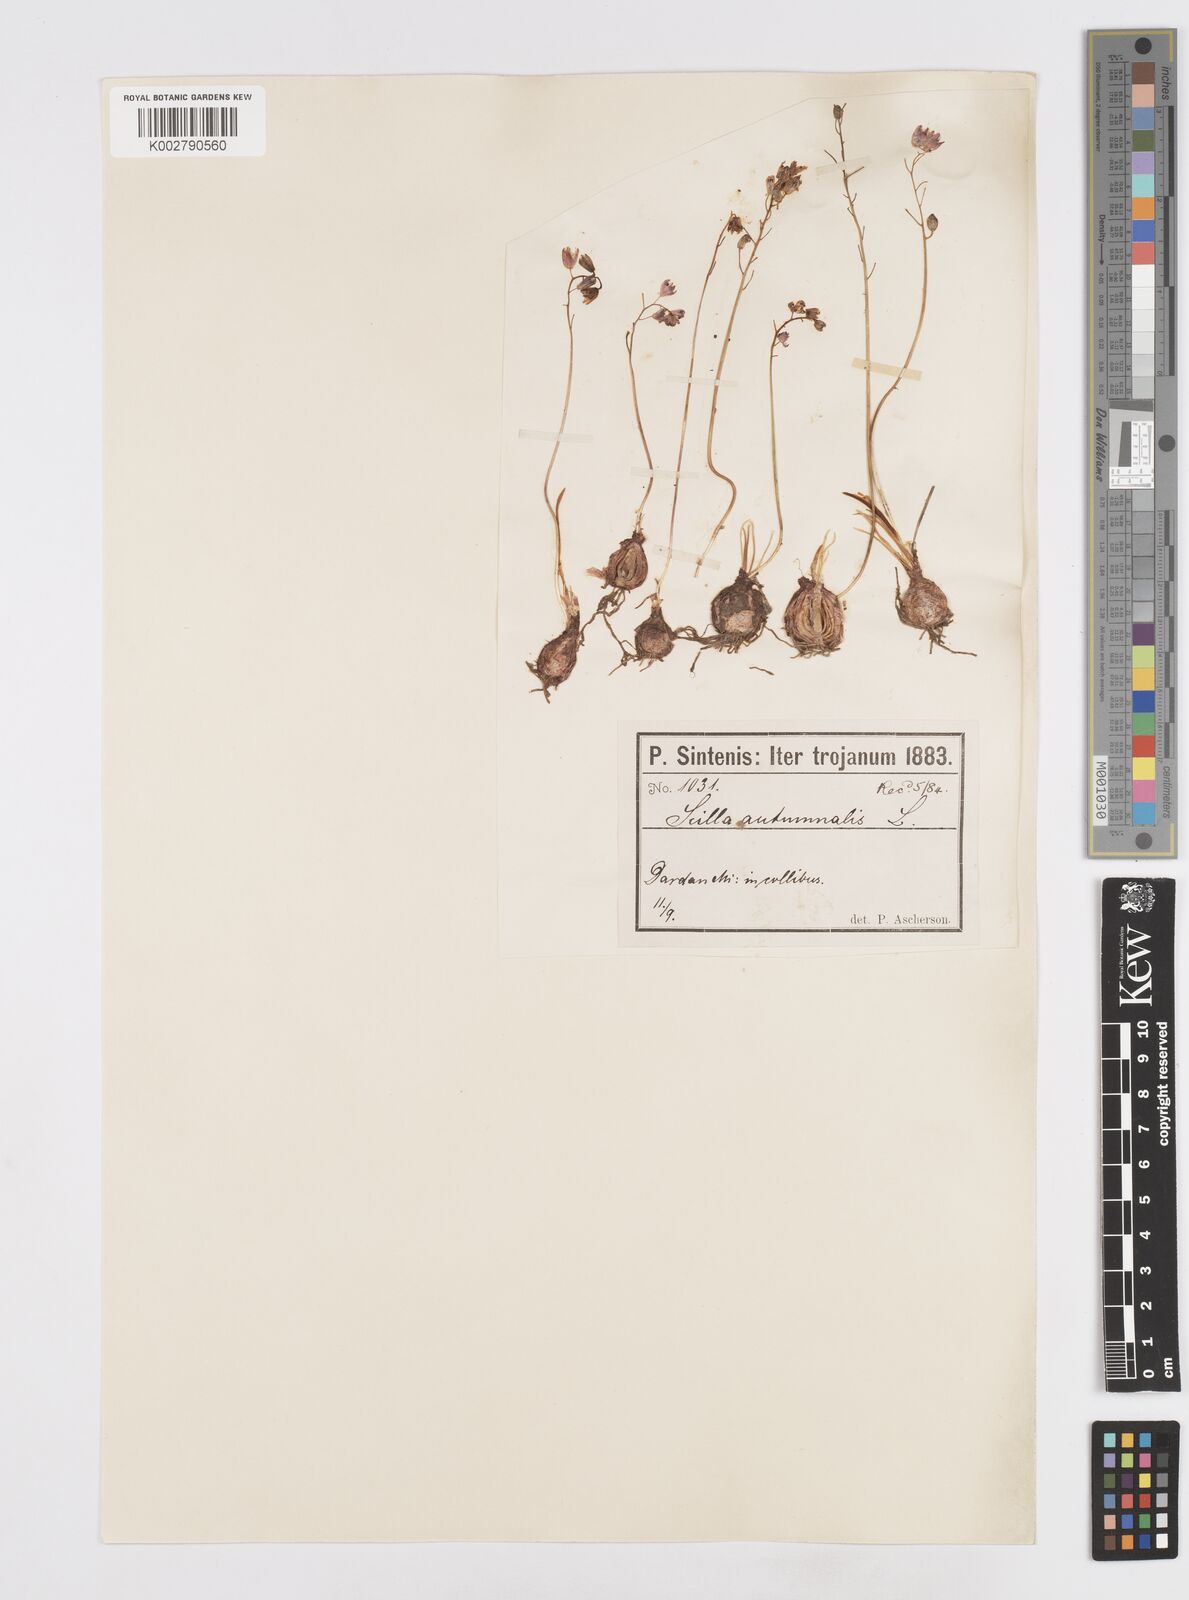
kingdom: Plantae
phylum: Tracheophyta
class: Liliopsida
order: Asparagales
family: Asparagaceae
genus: Prospero
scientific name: Prospero autumnale
